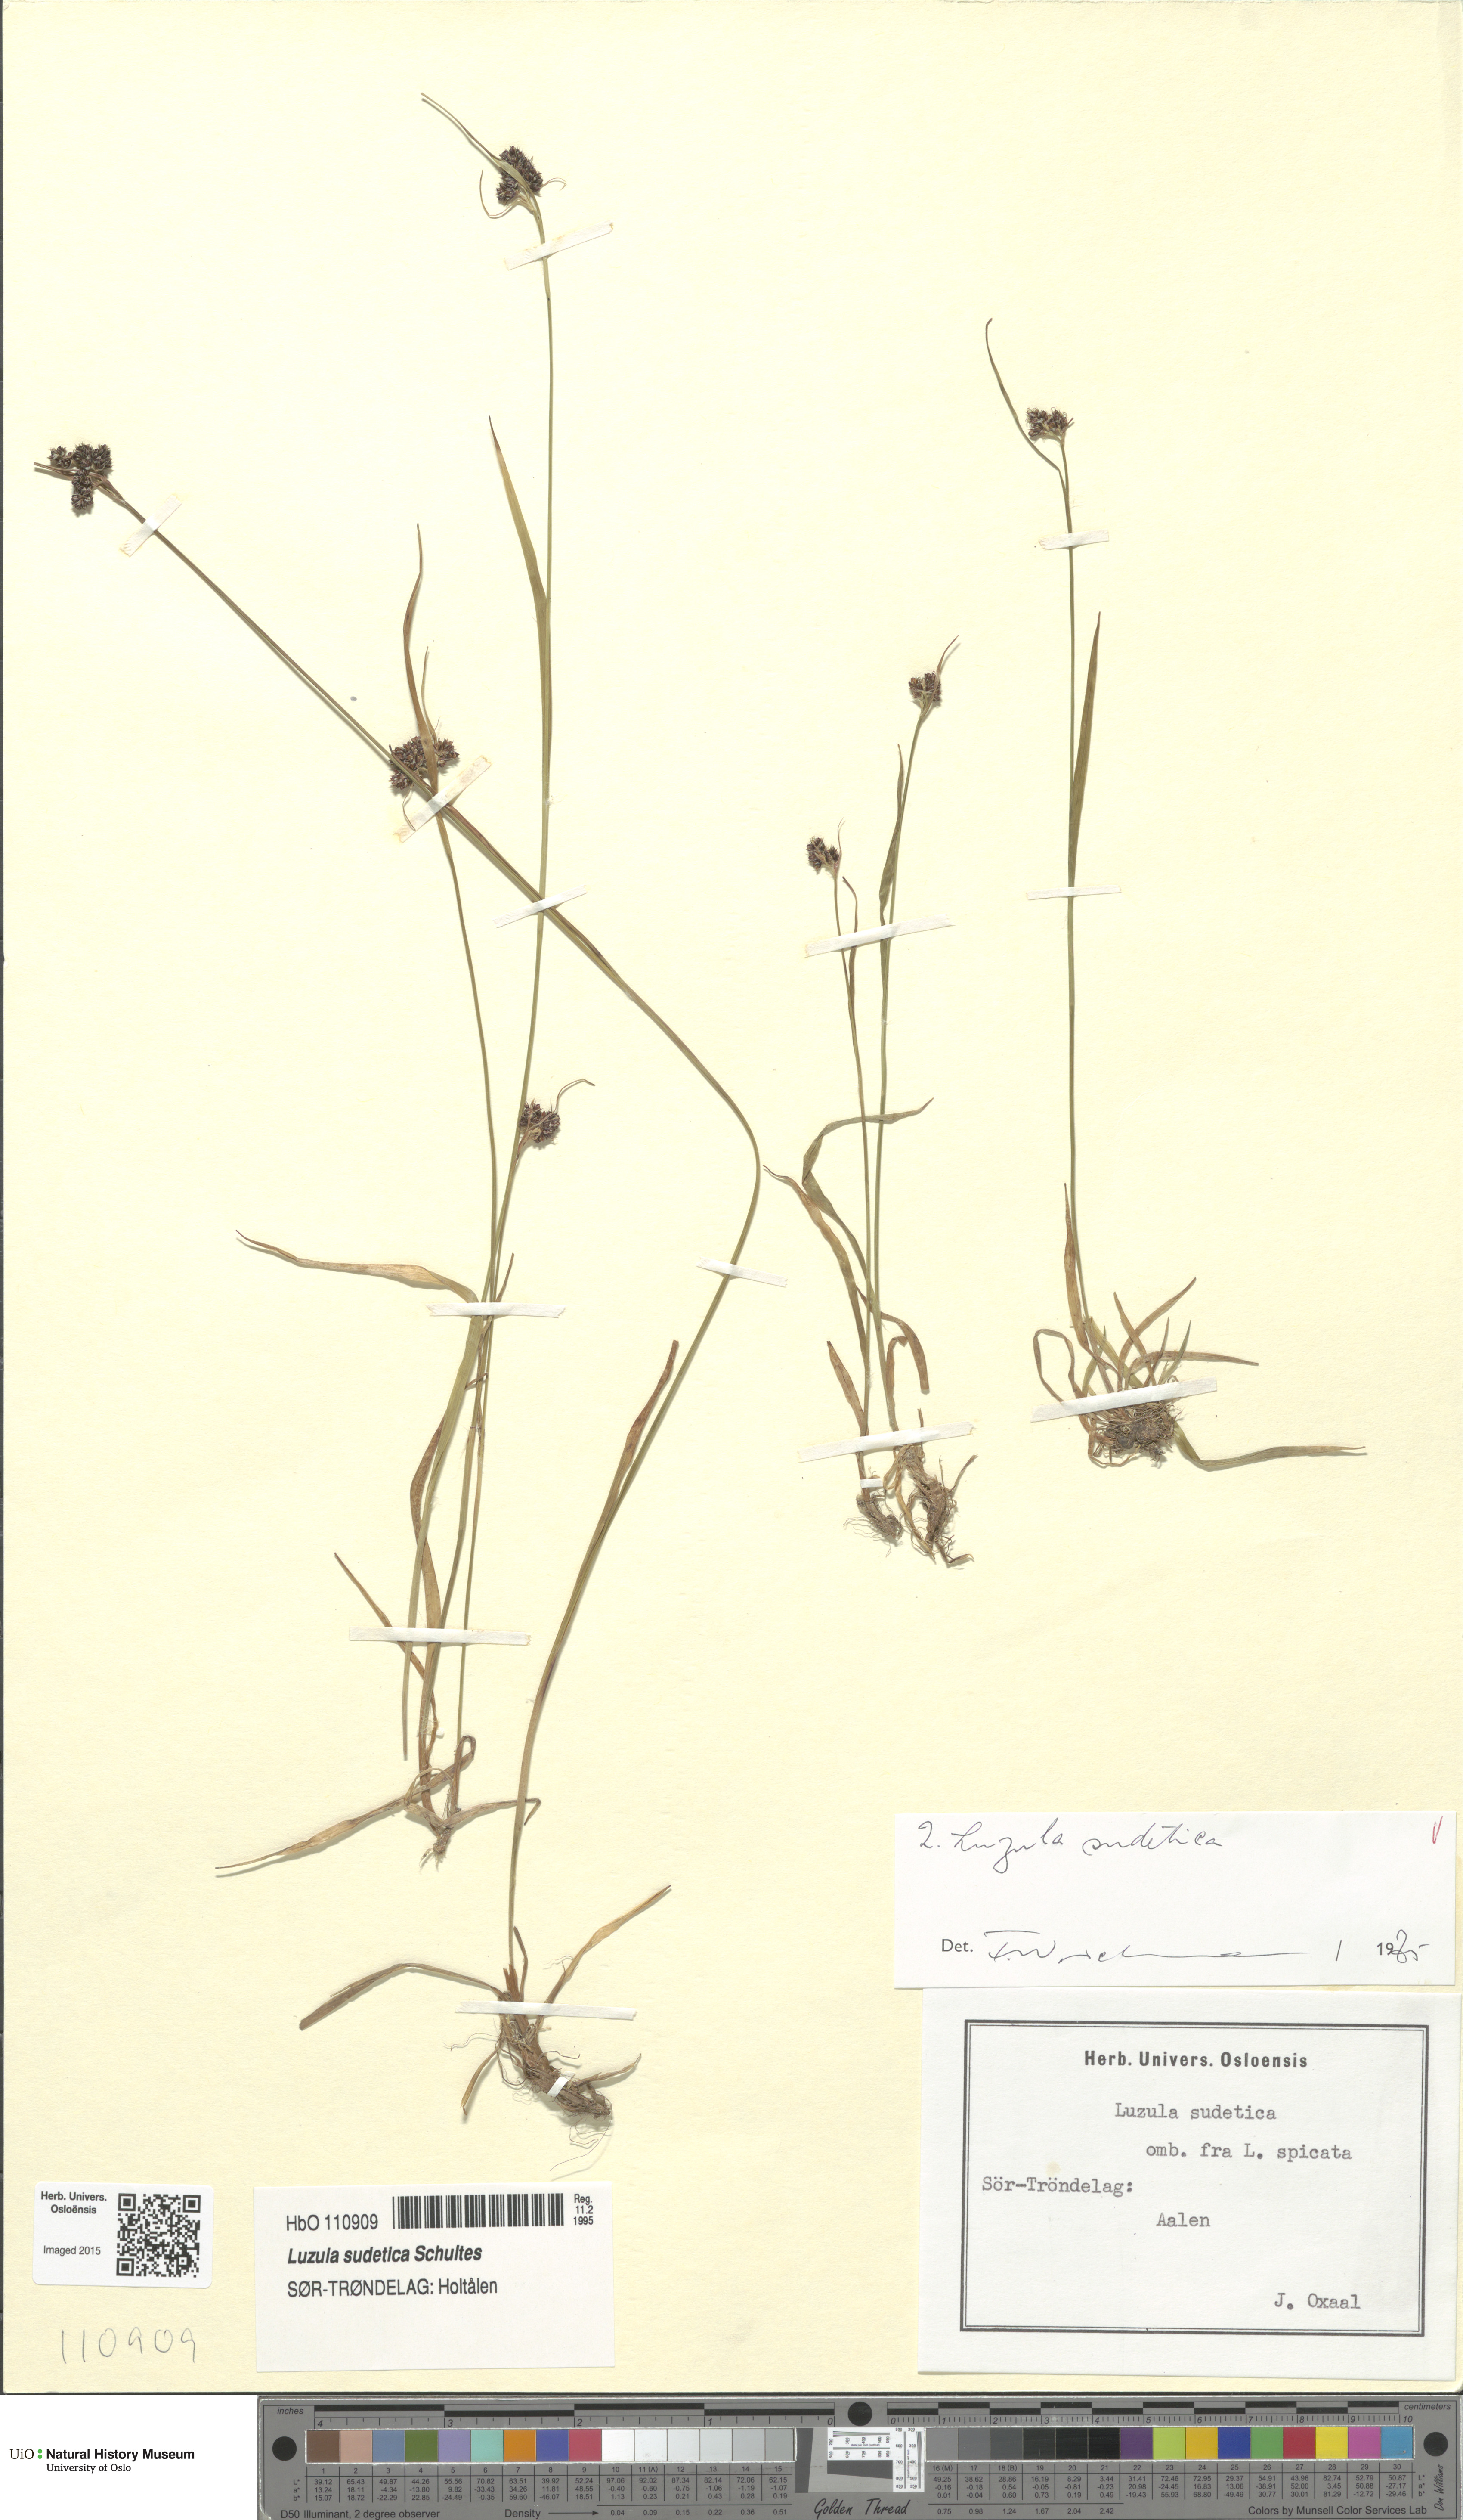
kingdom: Plantae
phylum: Tracheophyta
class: Liliopsida
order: Poales
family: Juncaceae
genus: Luzula
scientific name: Luzula sudetica
